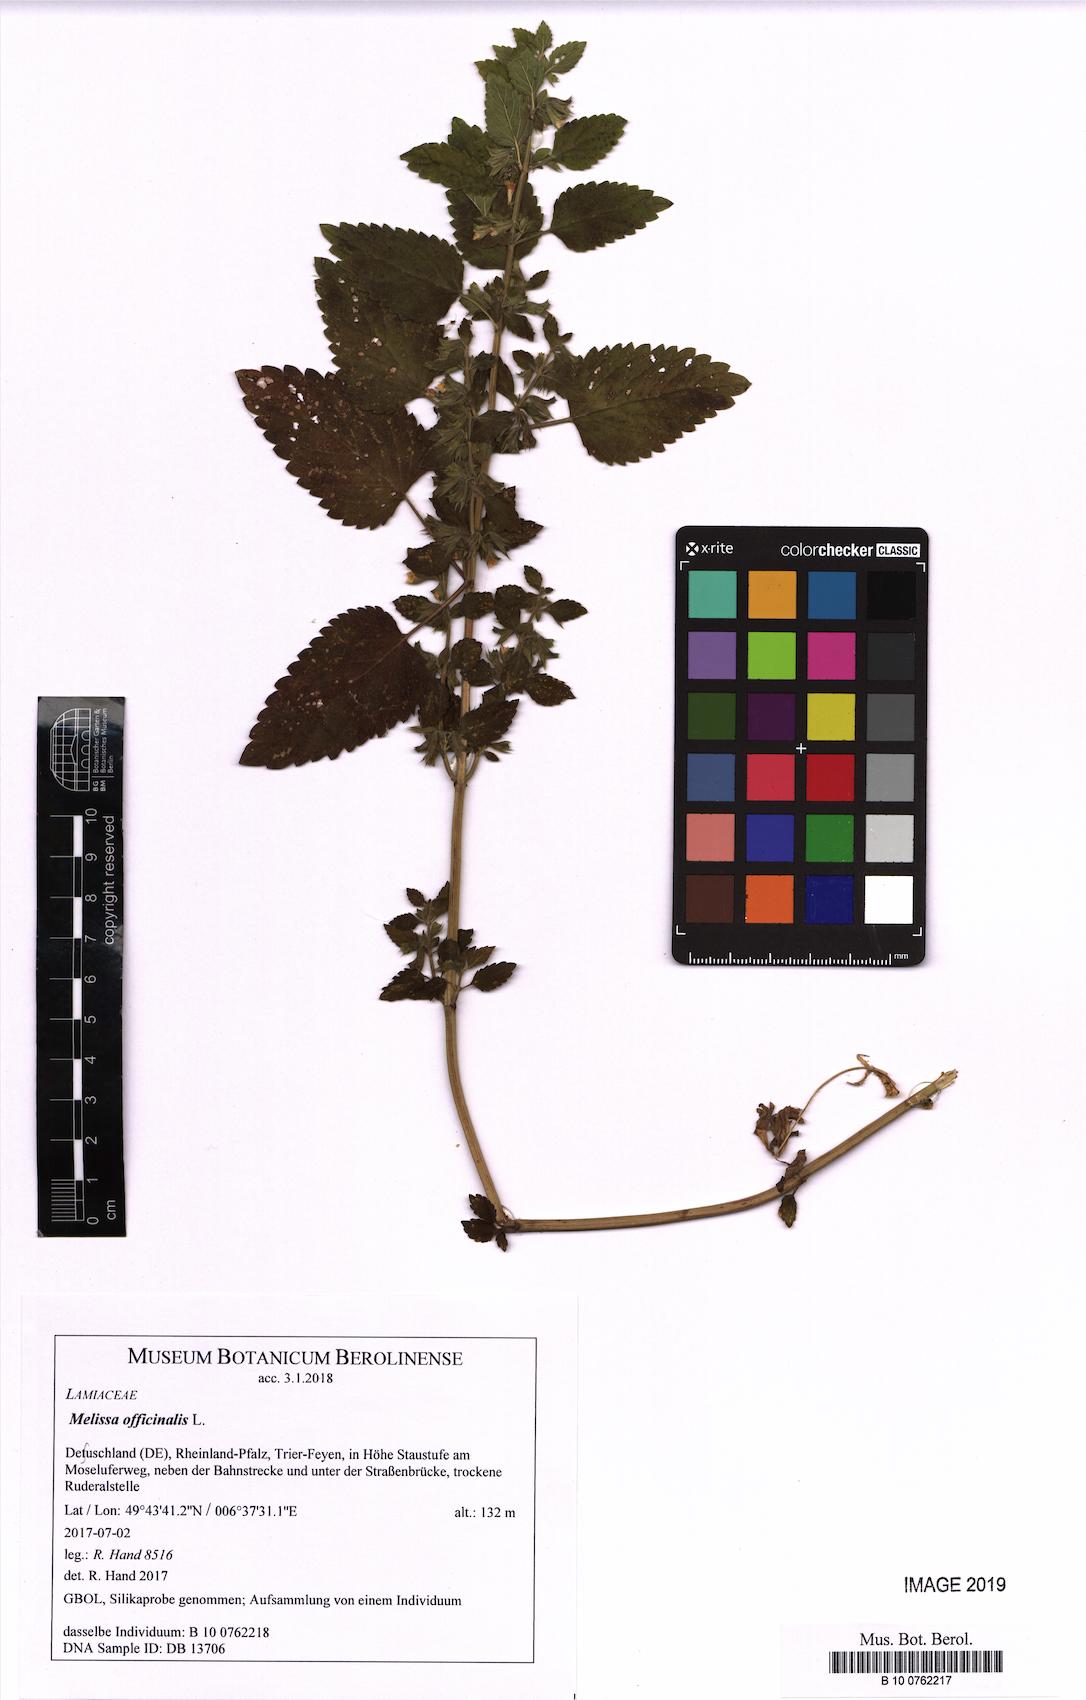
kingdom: Plantae
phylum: Tracheophyta
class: Magnoliopsida
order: Lamiales
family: Lamiaceae
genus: Melissa
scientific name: Melissa officinalis
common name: Balm
